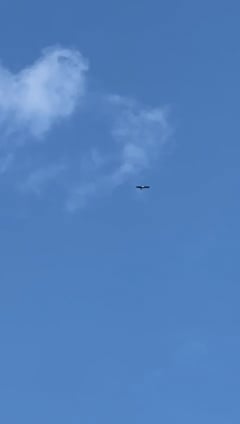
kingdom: Animalia
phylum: Chordata
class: Aves
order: Ciconiiformes
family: Ciconiidae
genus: Ciconia
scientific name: Ciconia ciconia
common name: White stork
